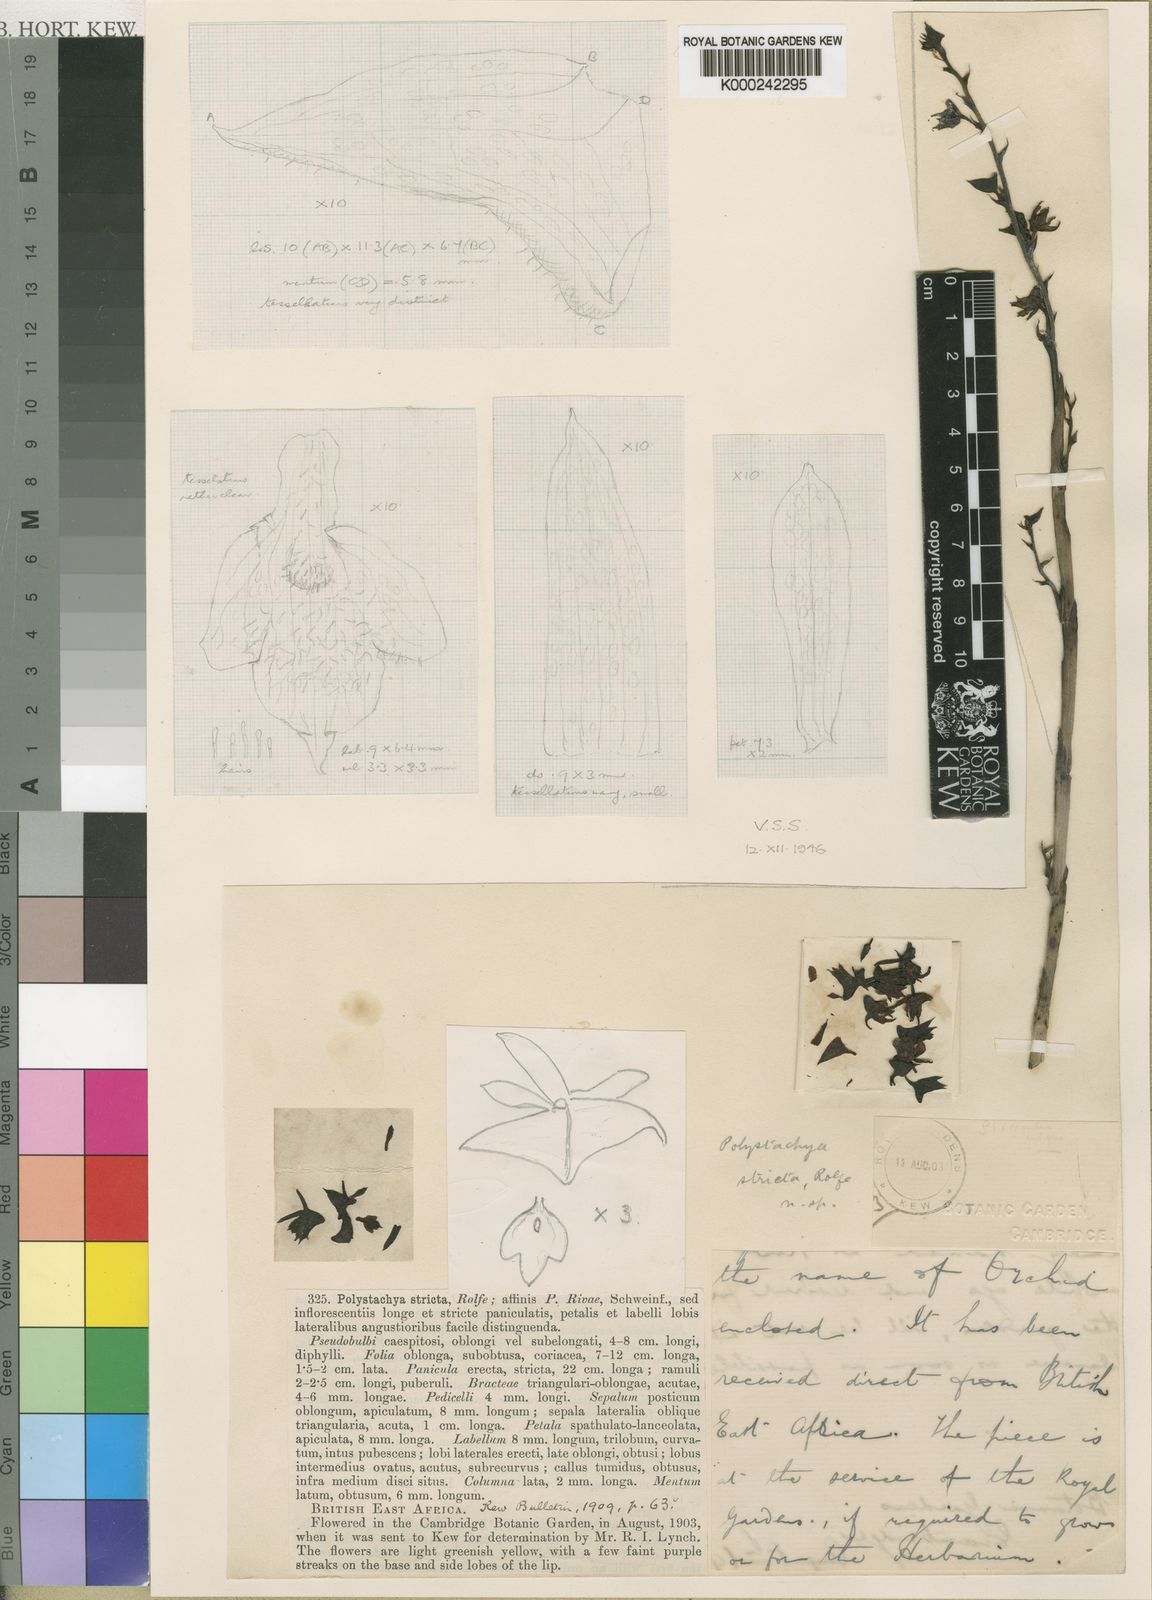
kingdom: Plantae
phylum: Tracheophyta
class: Liliopsida
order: Asparagales
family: Orchidaceae
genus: Polystachya
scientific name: Polystachya bennettiana
